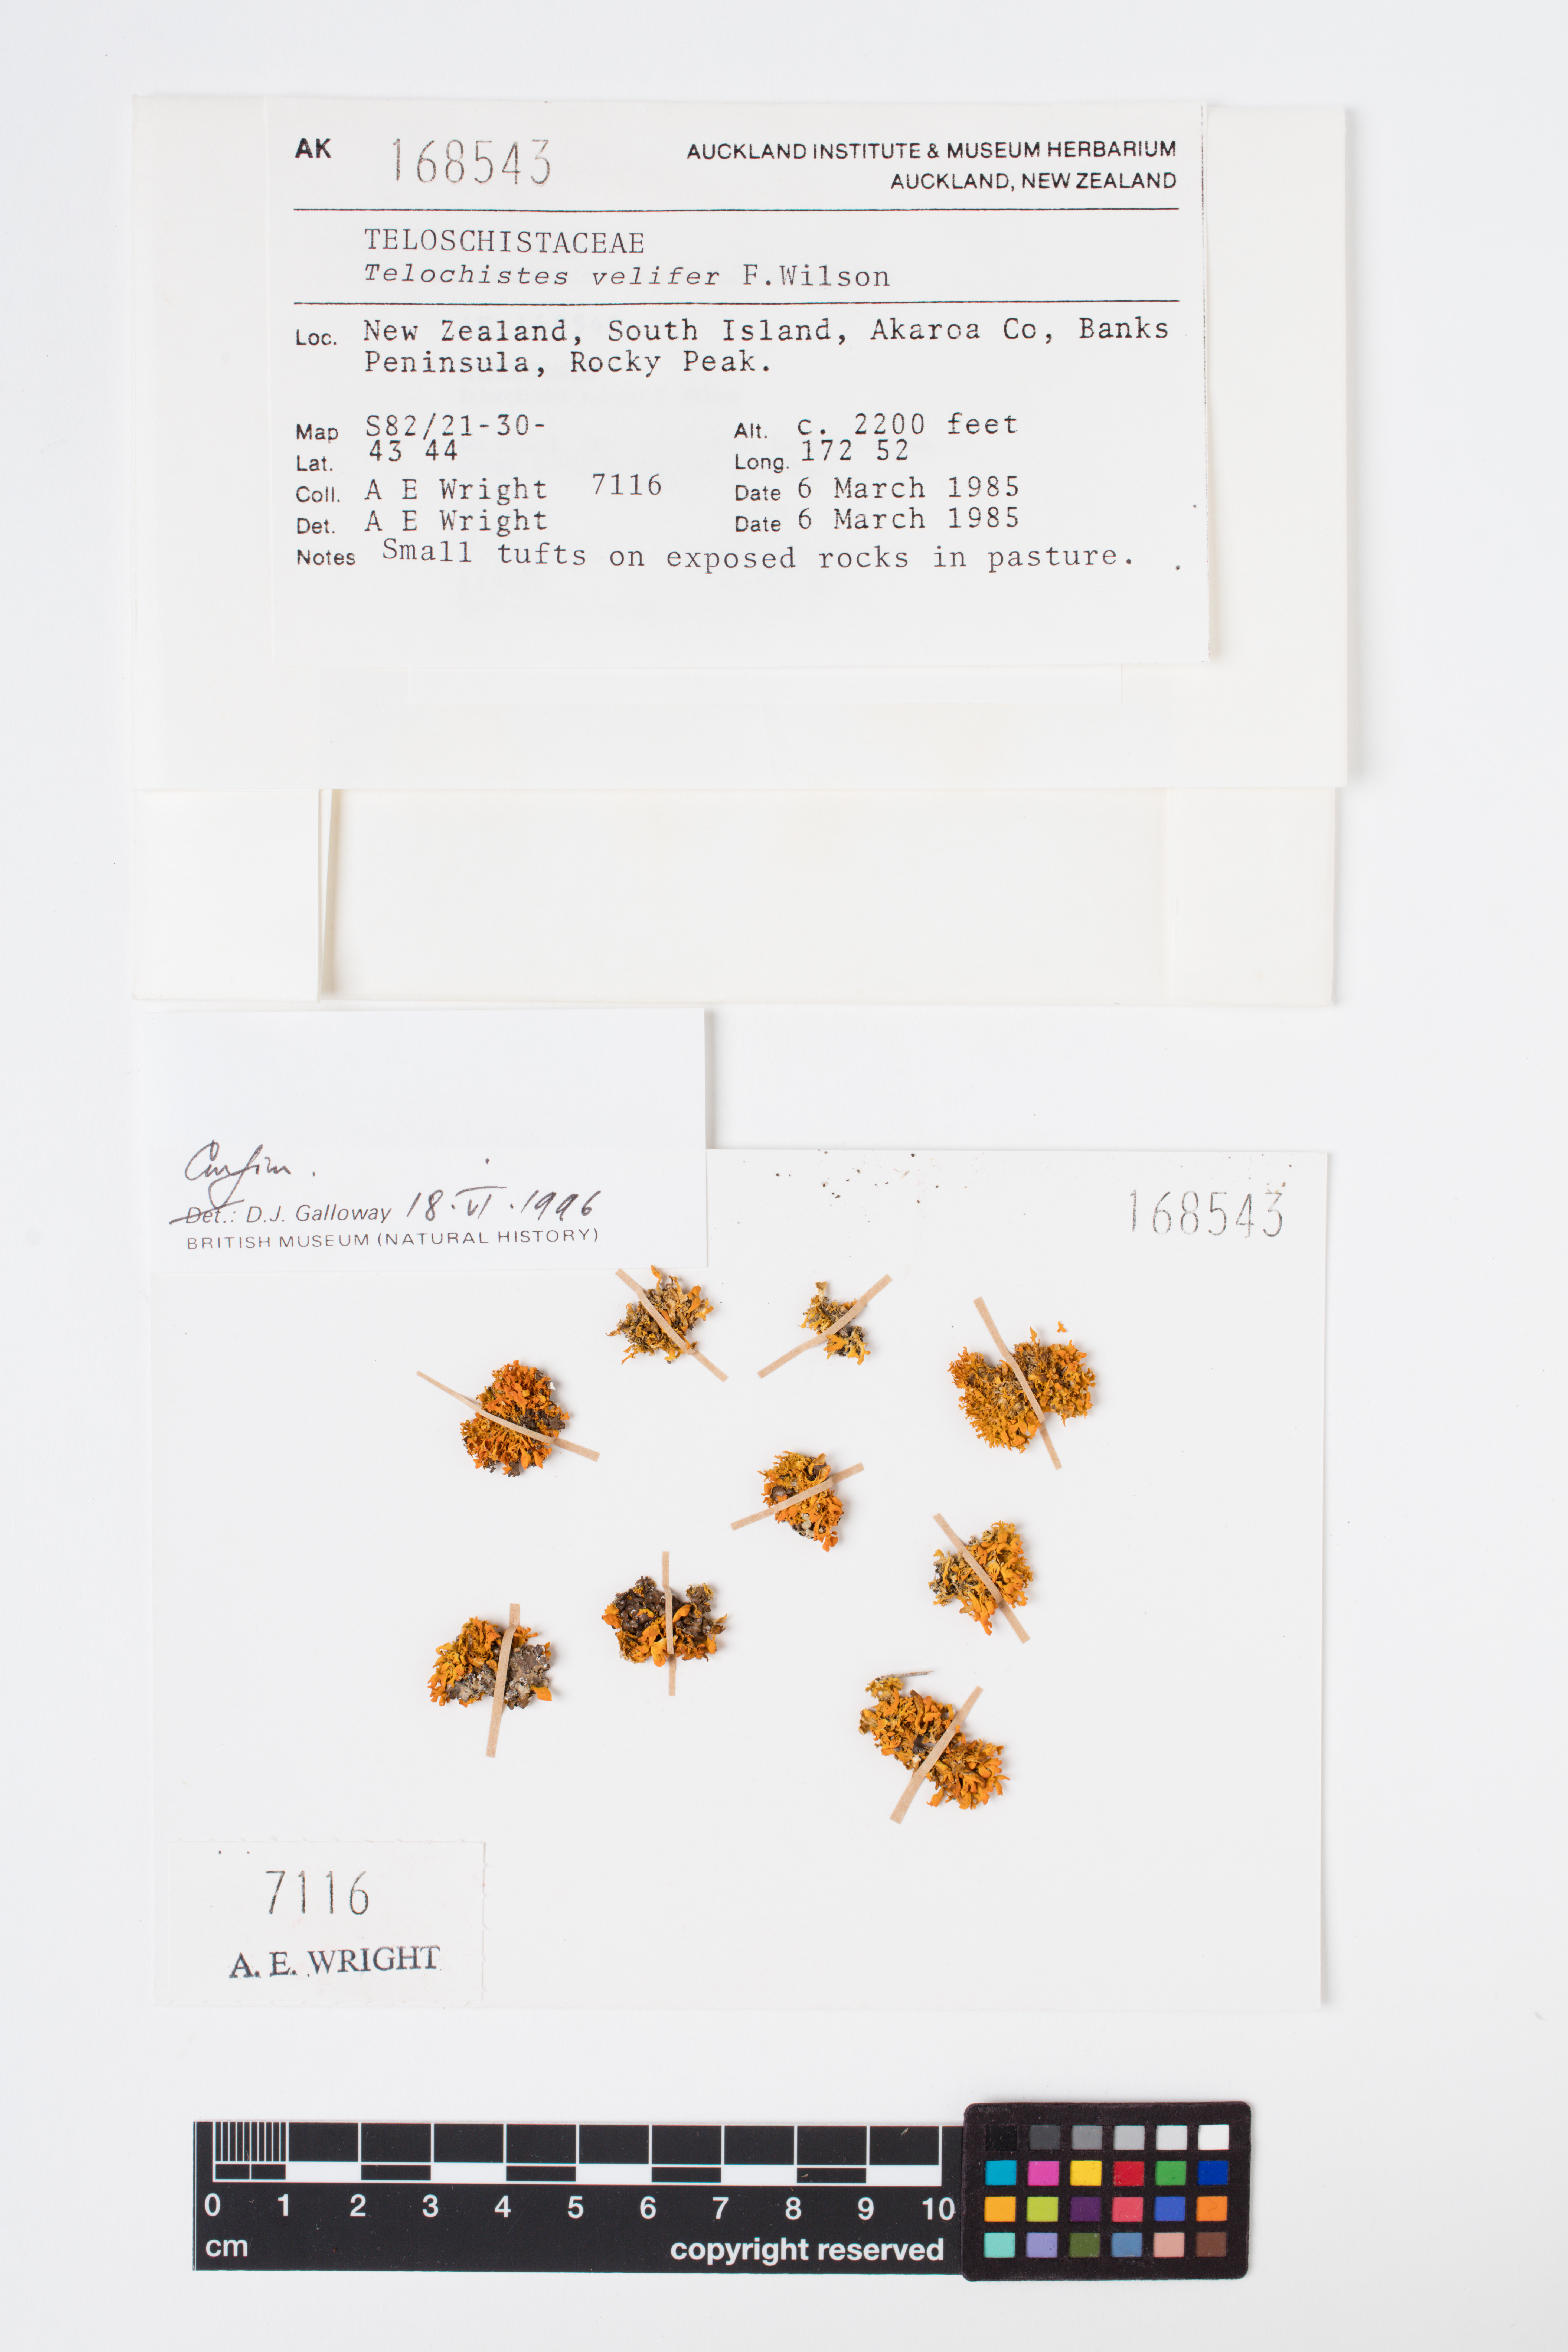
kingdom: Fungi
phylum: Ascomycota
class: Lecanoromycetes
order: Teloschistales
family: Teloschistaceae
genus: Teloschistes
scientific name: Teloschistes velifer
